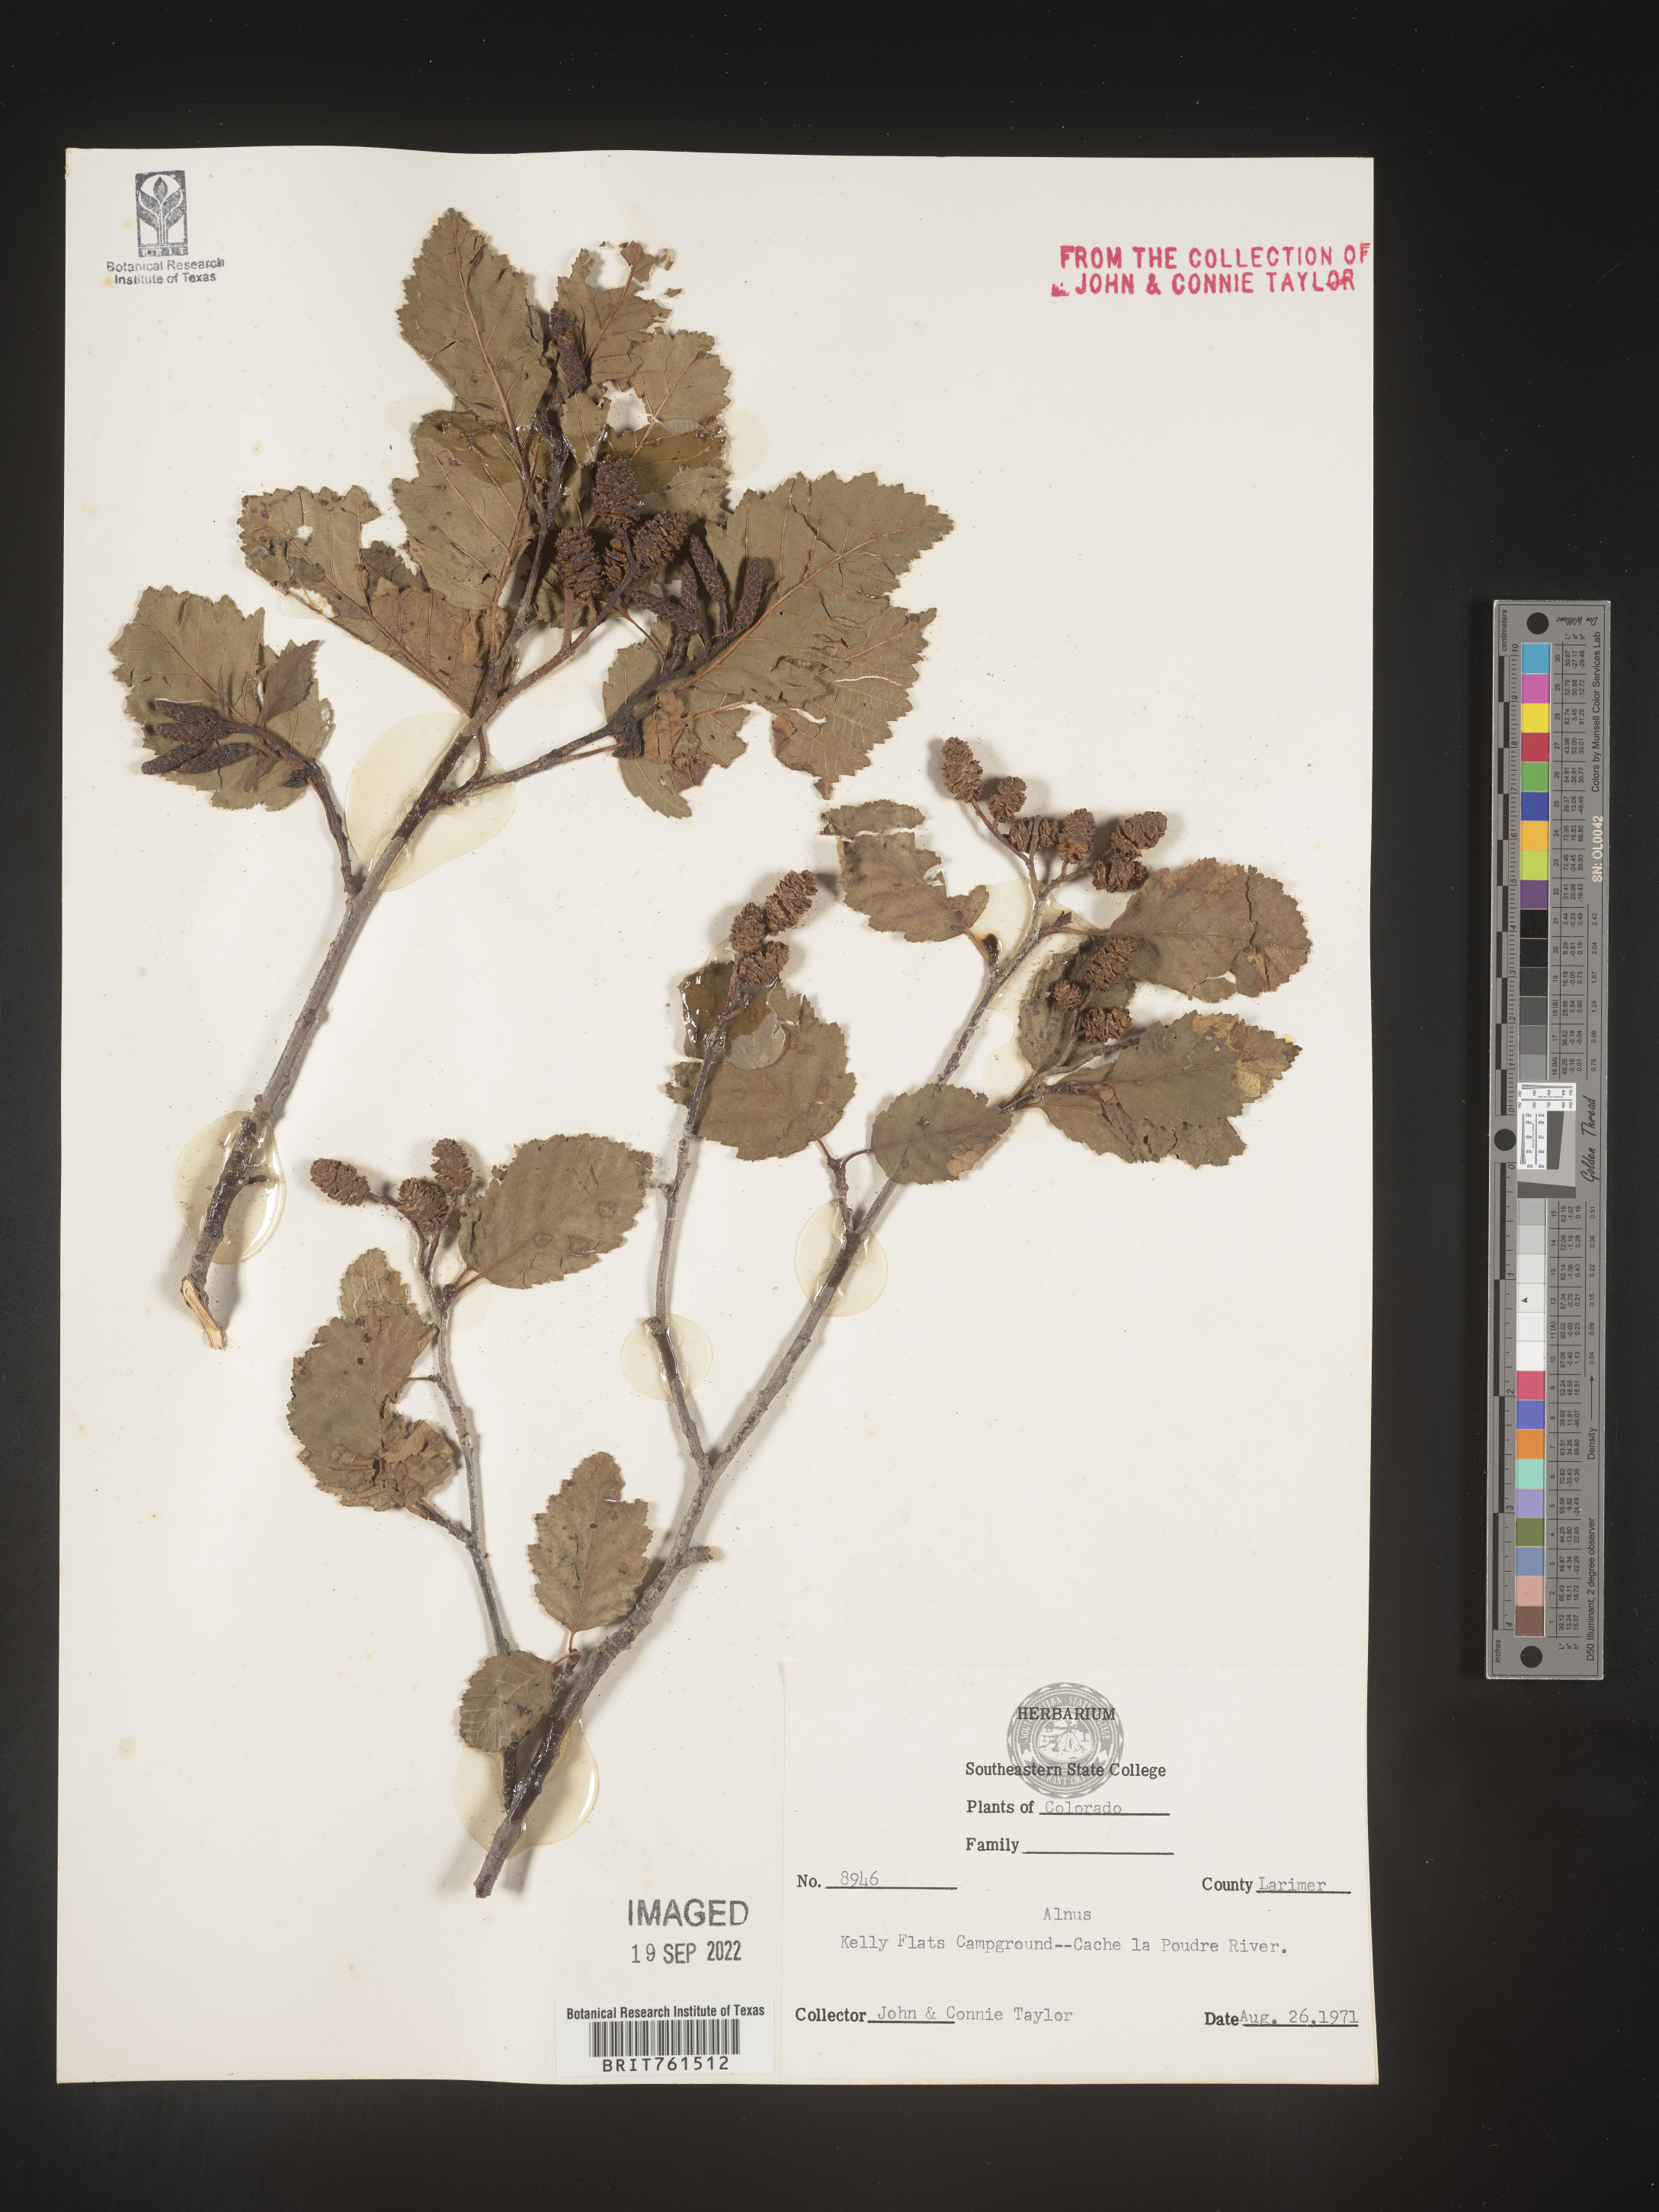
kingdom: Plantae
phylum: Tracheophyta
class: Magnoliopsida
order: Fagales
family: Betulaceae
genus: Alnus
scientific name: Alnus
